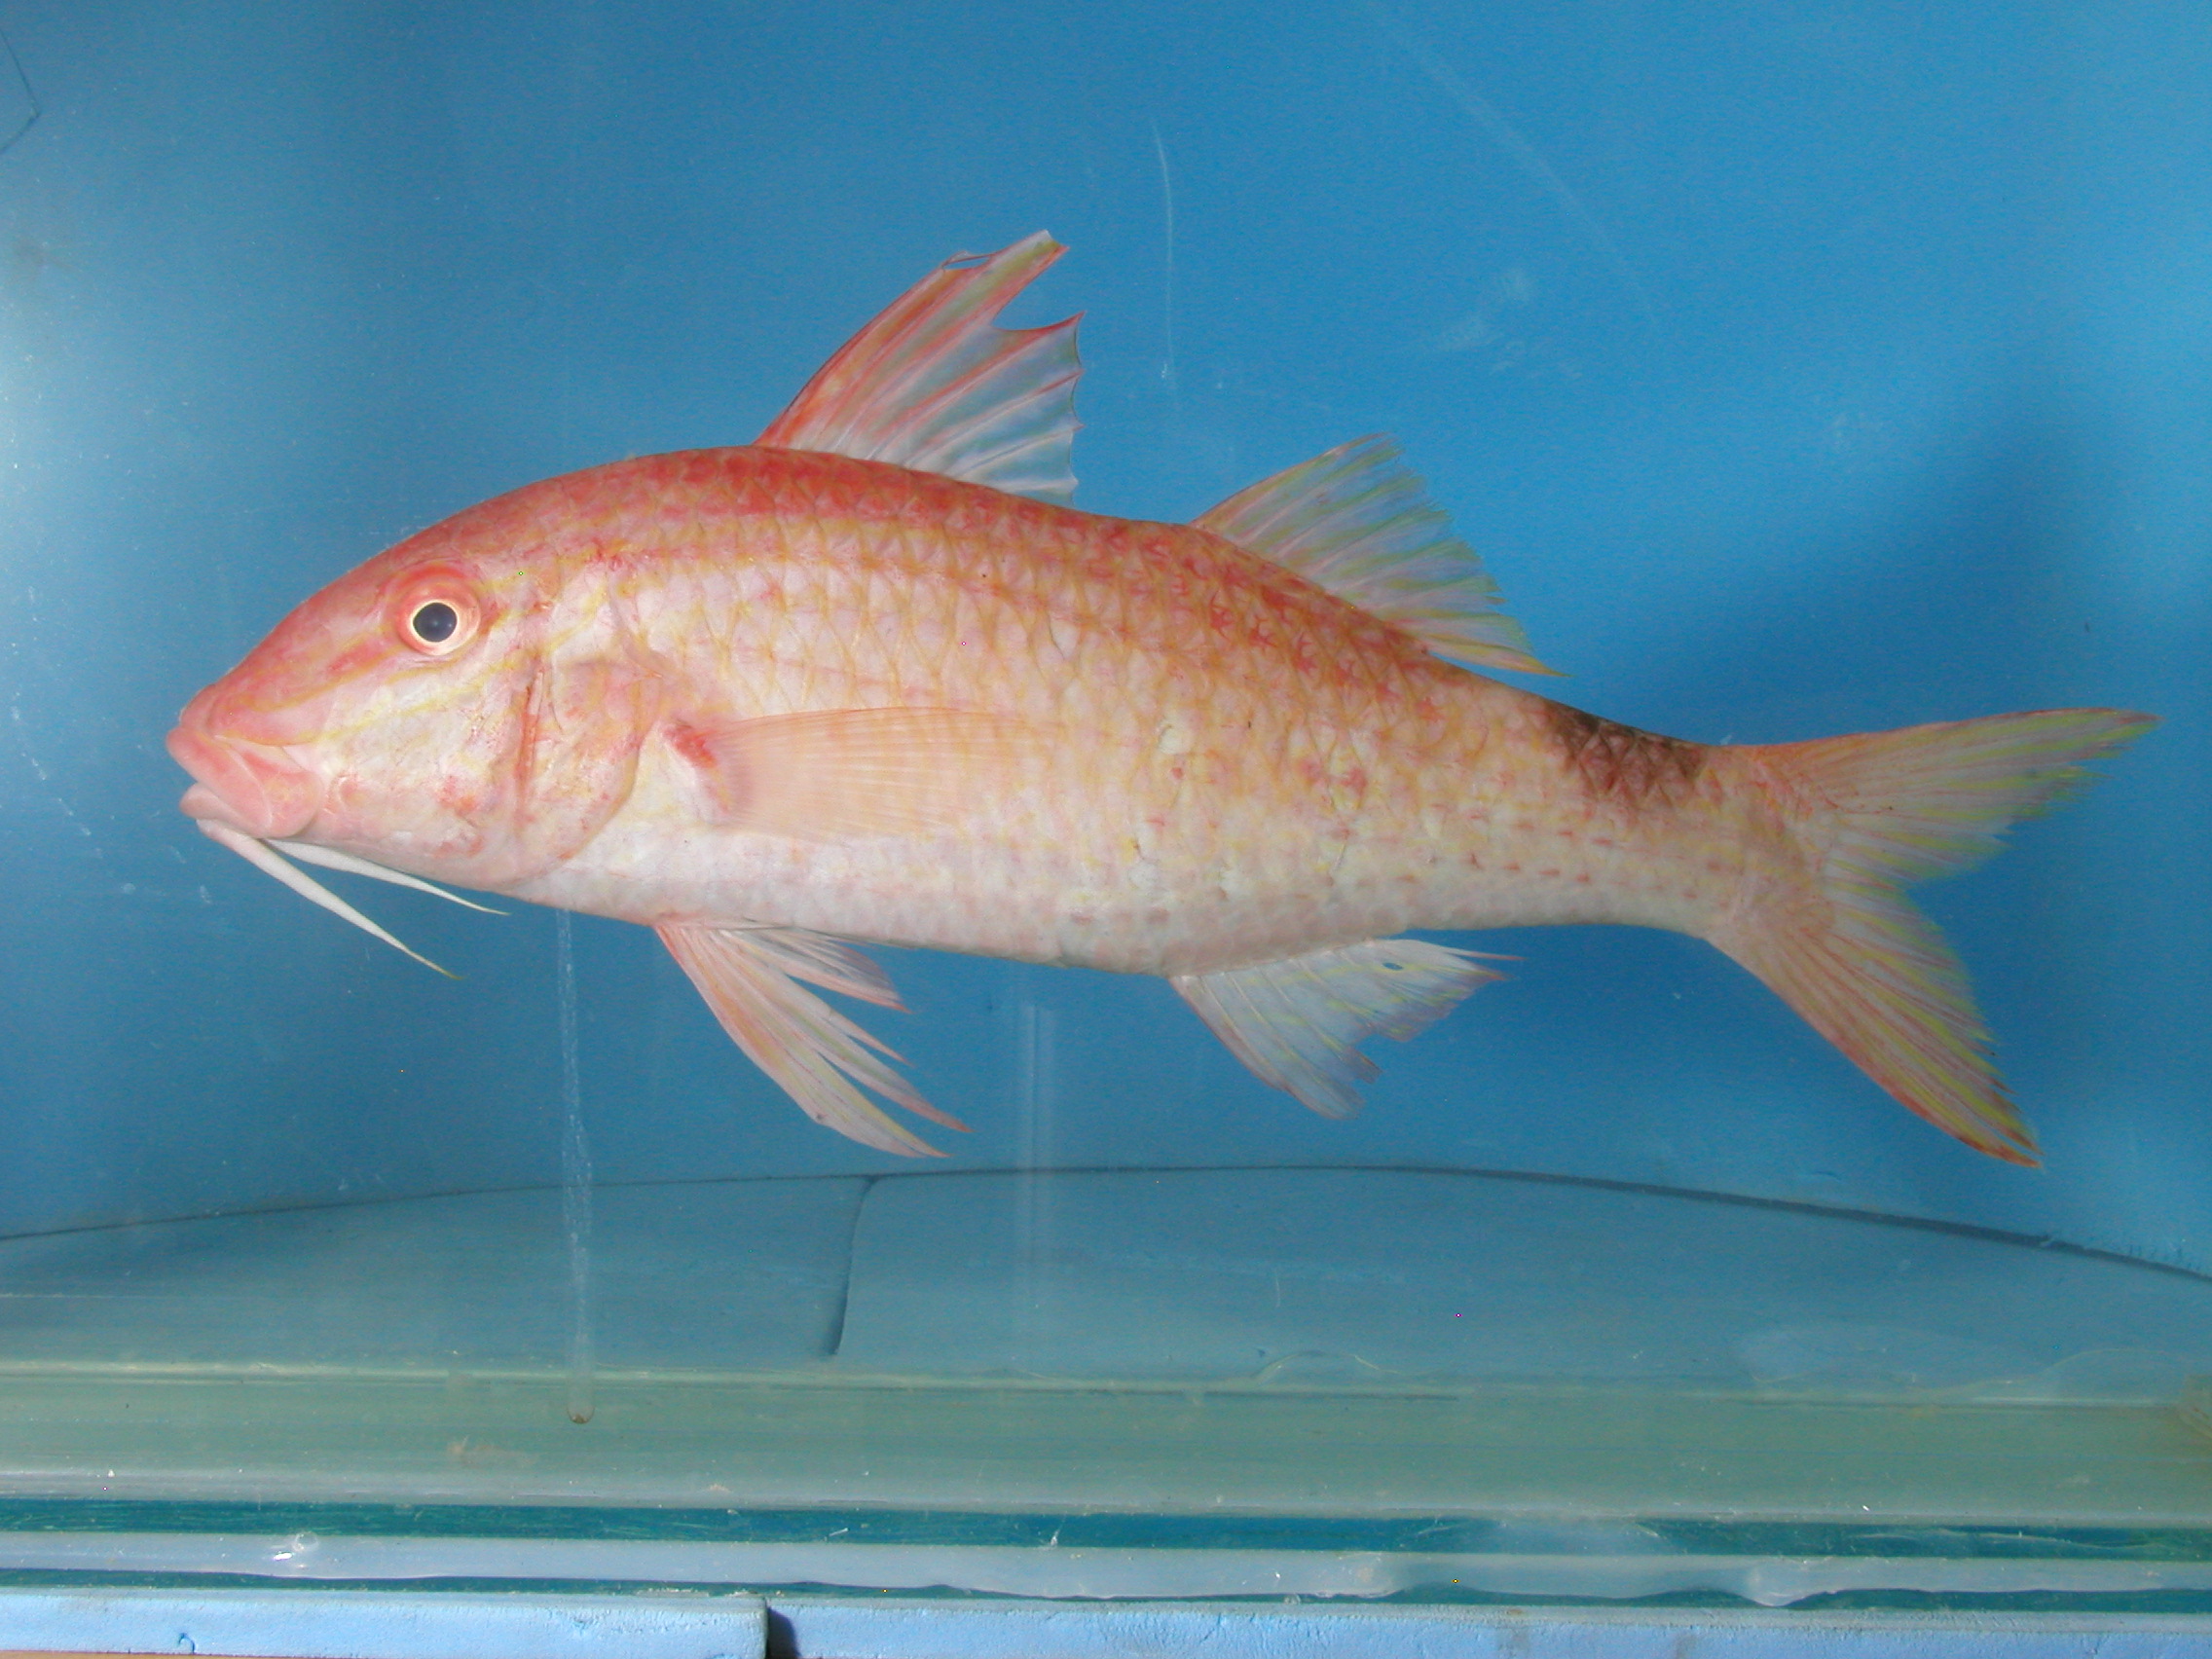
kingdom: Animalia
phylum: Chordata
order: Perciformes
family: Mullidae
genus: Parupeneus
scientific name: Parupeneus rubescens
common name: Rosy goatfish
